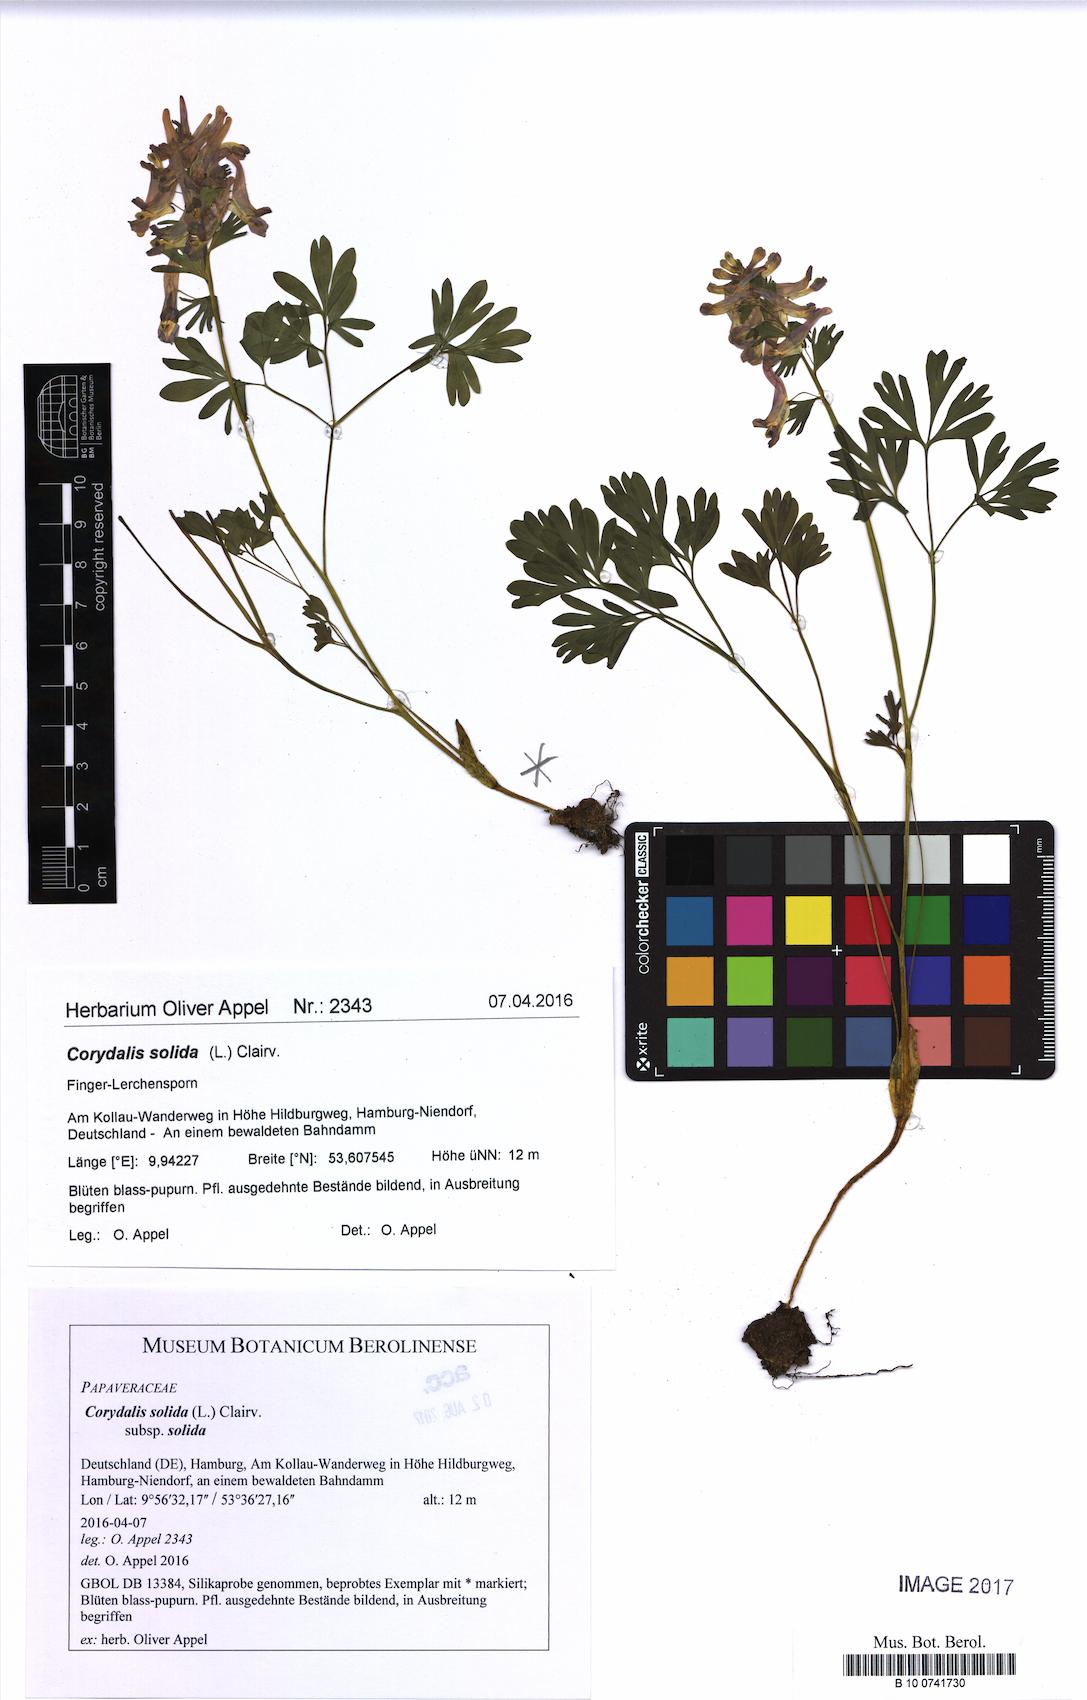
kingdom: Plantae
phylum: Tracheophyta
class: Magnoliopsida
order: Ranunculales
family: Papaveraceae
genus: Corydalis
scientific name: Corydalis solida
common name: Bird-in-a-bush
